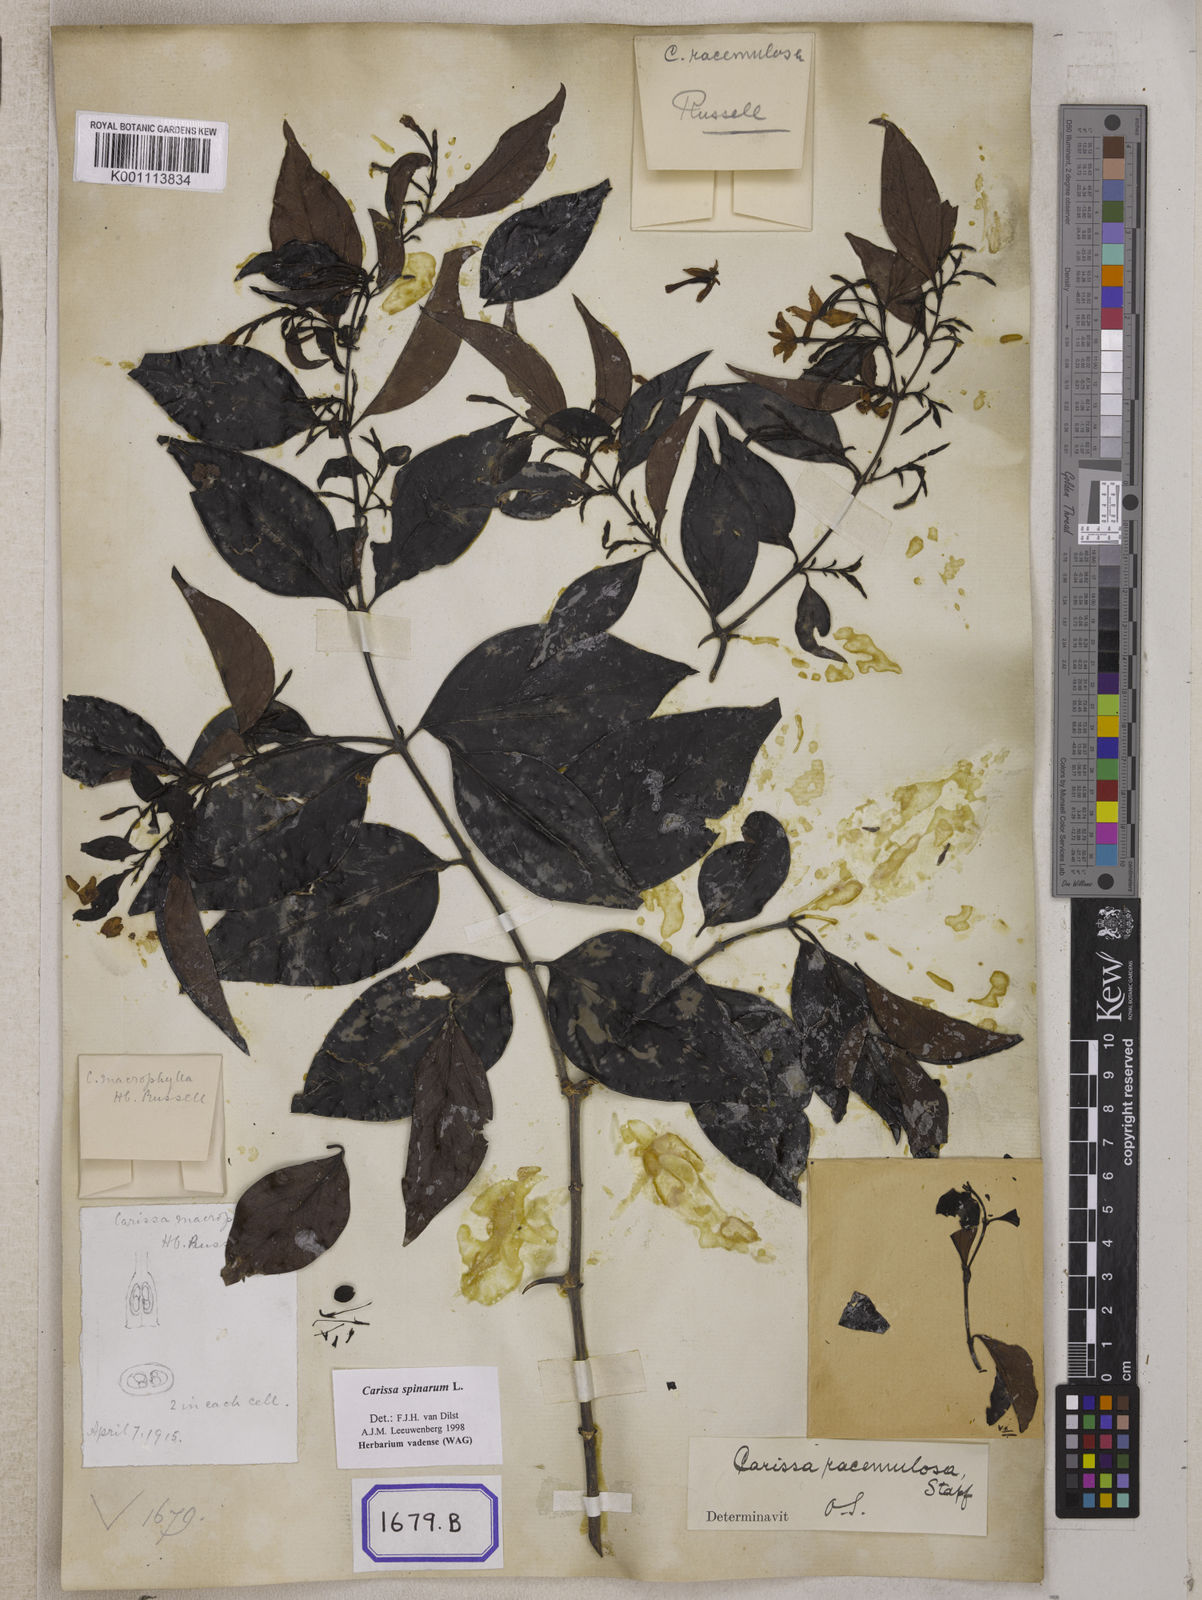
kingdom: Plantae
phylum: Tracheophyta
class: Magnoliopsida
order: Gentianales
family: Apocynaceae
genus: Carissa
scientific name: Carissa
